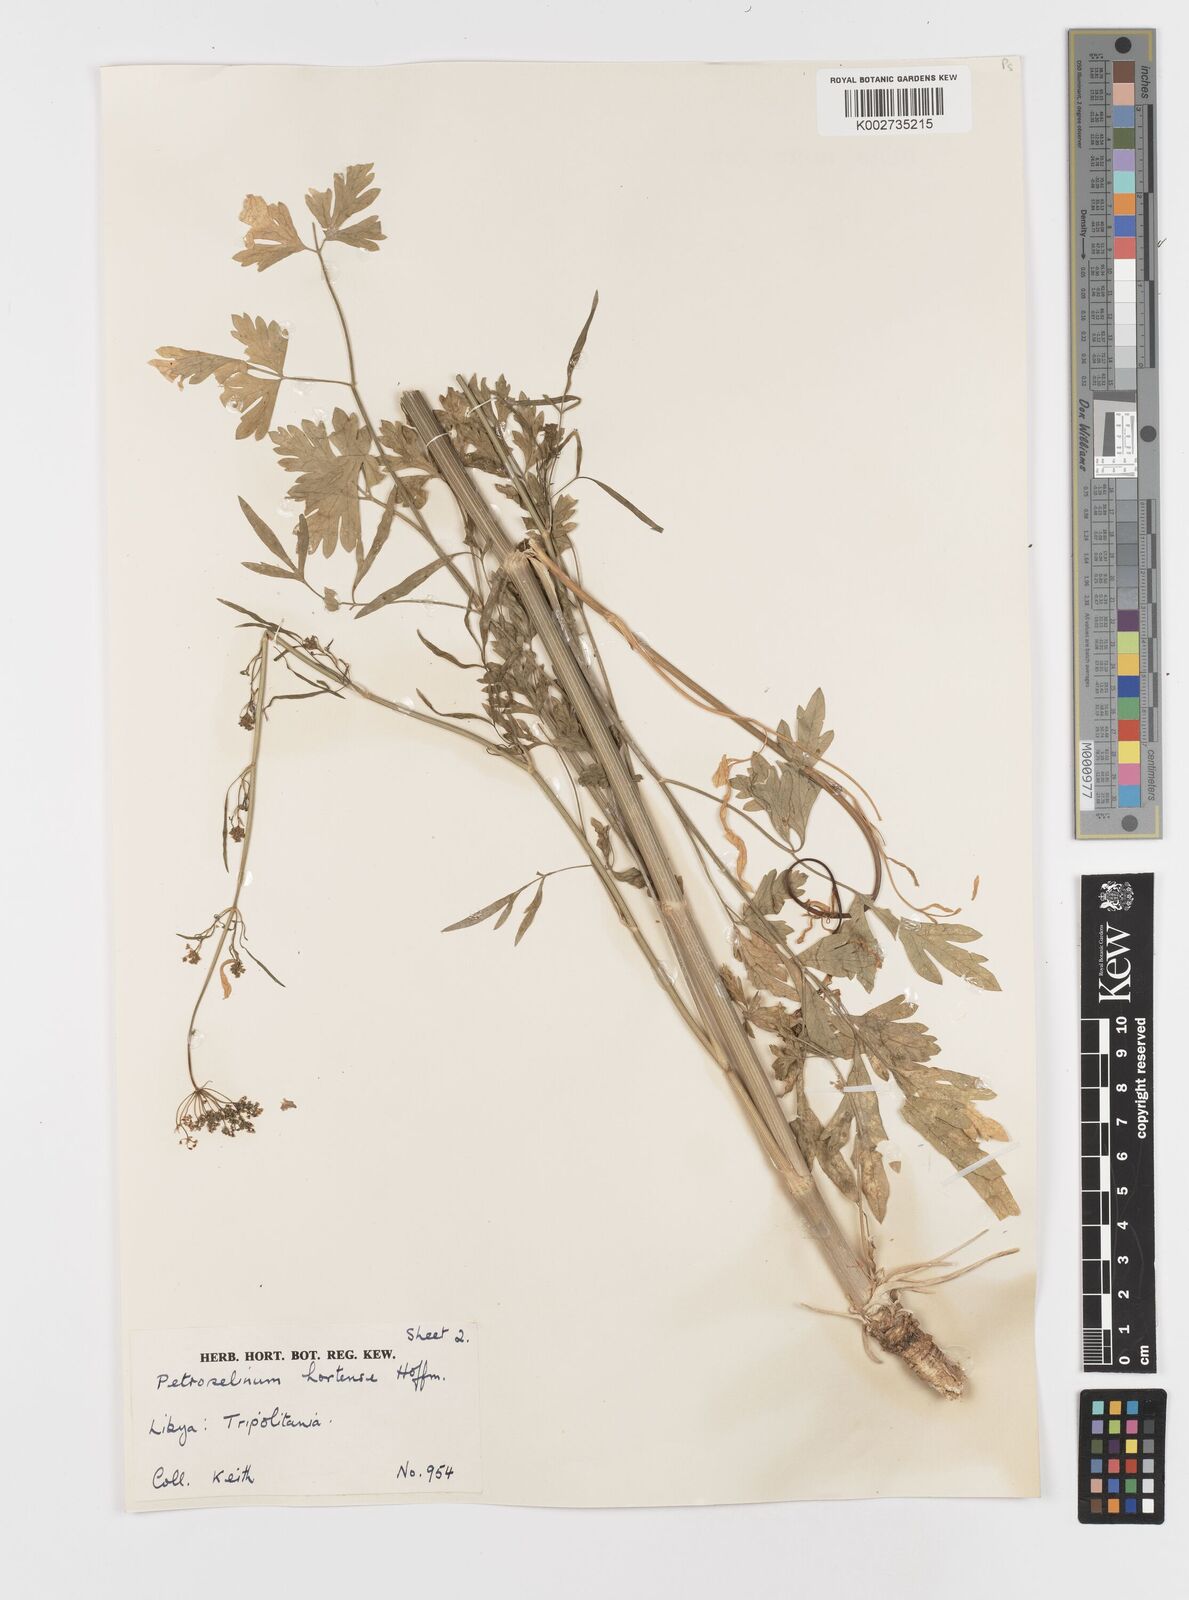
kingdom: Plantae
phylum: Tracheophyta
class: Magnoliopsida
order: Apiales
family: Apiaceae
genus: Petroselinum
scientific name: Petroselinum crispum
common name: Parsley
